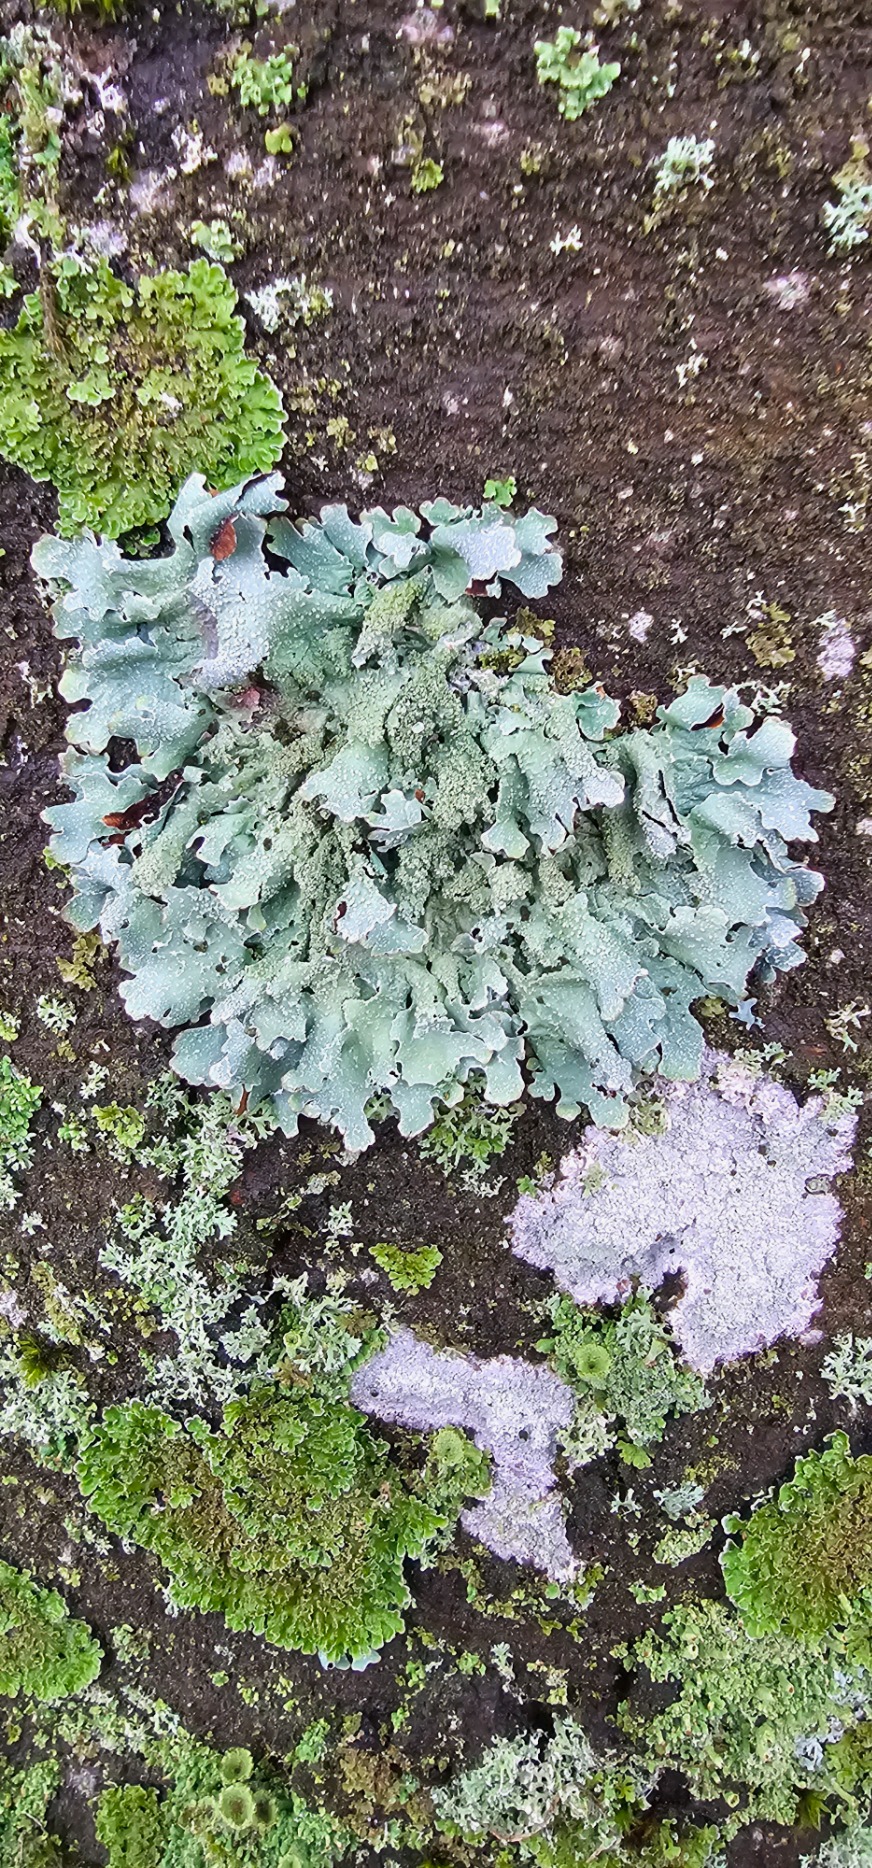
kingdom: Fungi
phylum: Ascomycota
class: Lecanoromycetes
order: Lecanorales
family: Parmeliaceae
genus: Parmelia
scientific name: Parmelia submontana
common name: Langlobet skållav
